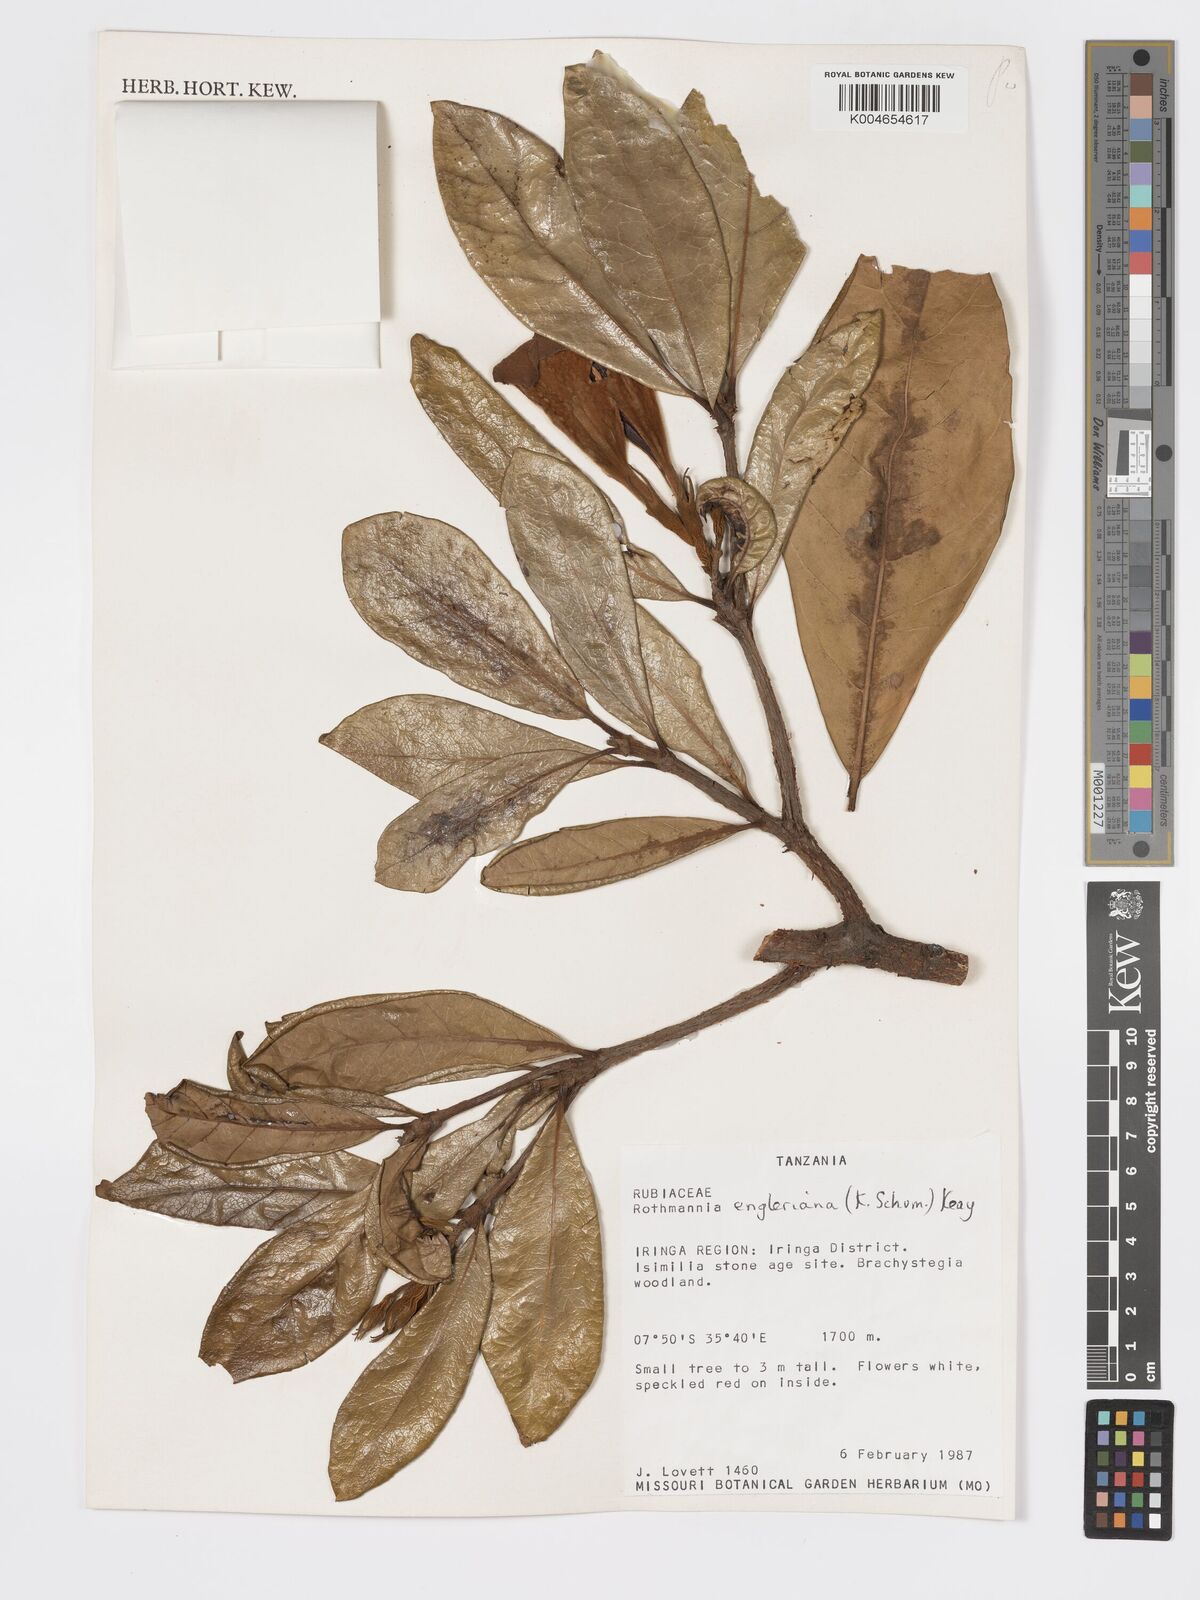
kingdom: Plantae
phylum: Tracheophyta
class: Magnoliopsida
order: Gentianales
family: Rubiaceae
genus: Rothmannia
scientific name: Rothmannia engleriana
